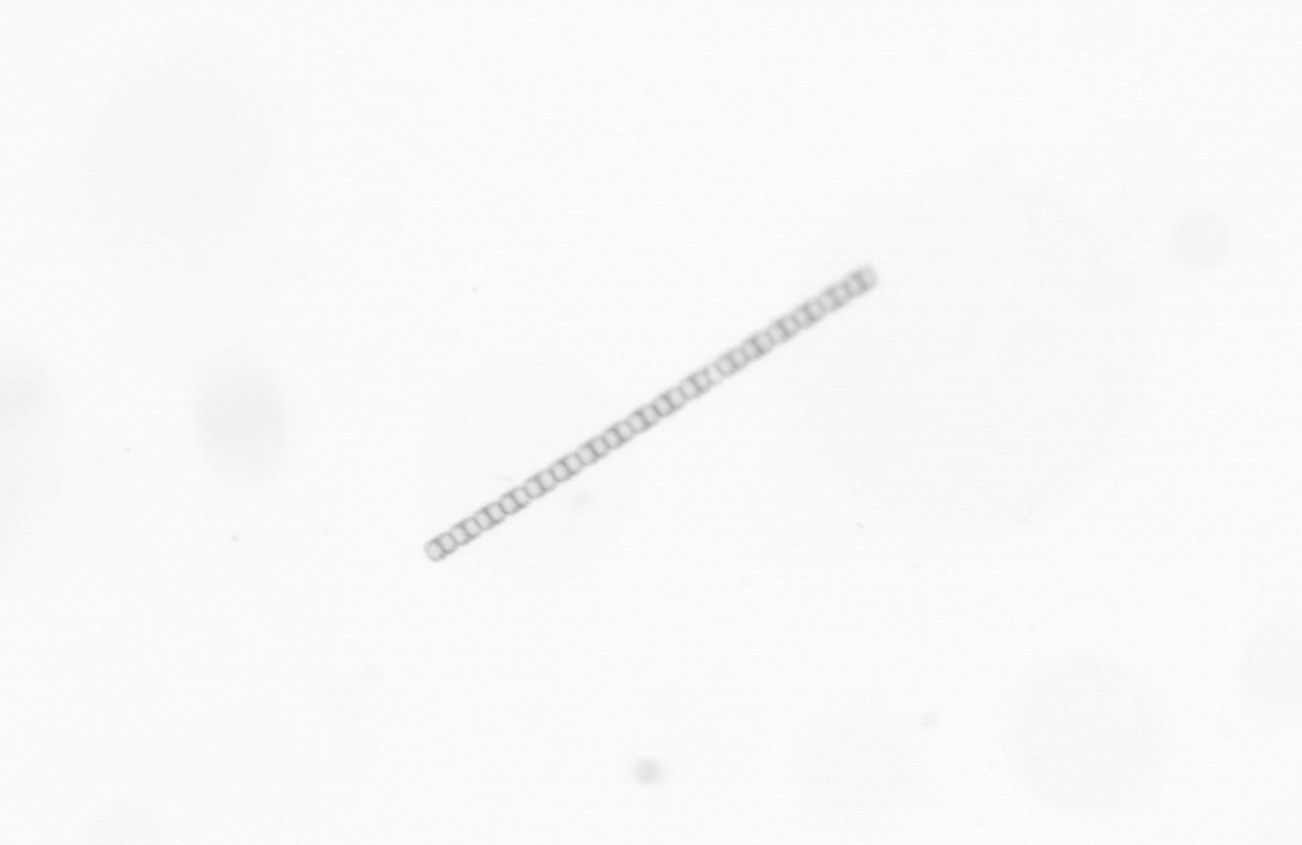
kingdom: Chromista
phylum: Ochrophyta
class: Bacillariophyceae
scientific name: Bacillariophyceae
